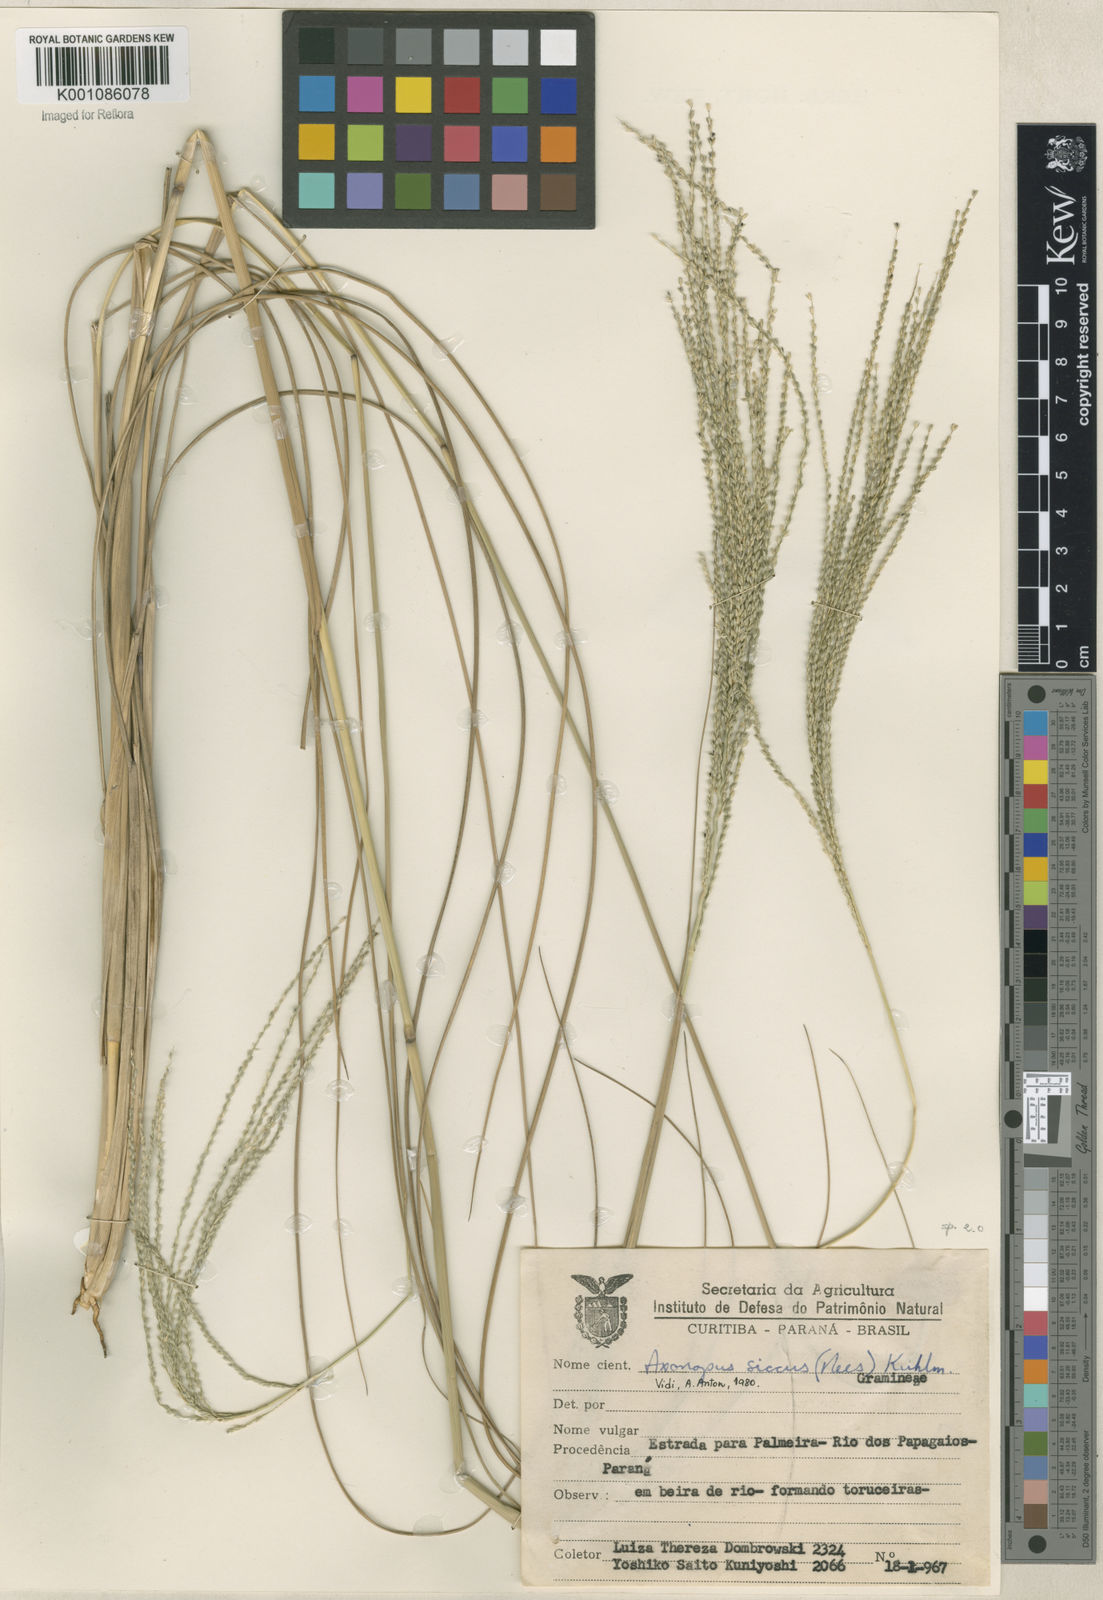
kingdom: Plantae
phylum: Tracheophyta
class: Liliopsida
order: Poales
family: Poaceae
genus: Axonopus
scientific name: Axonopus siccus
